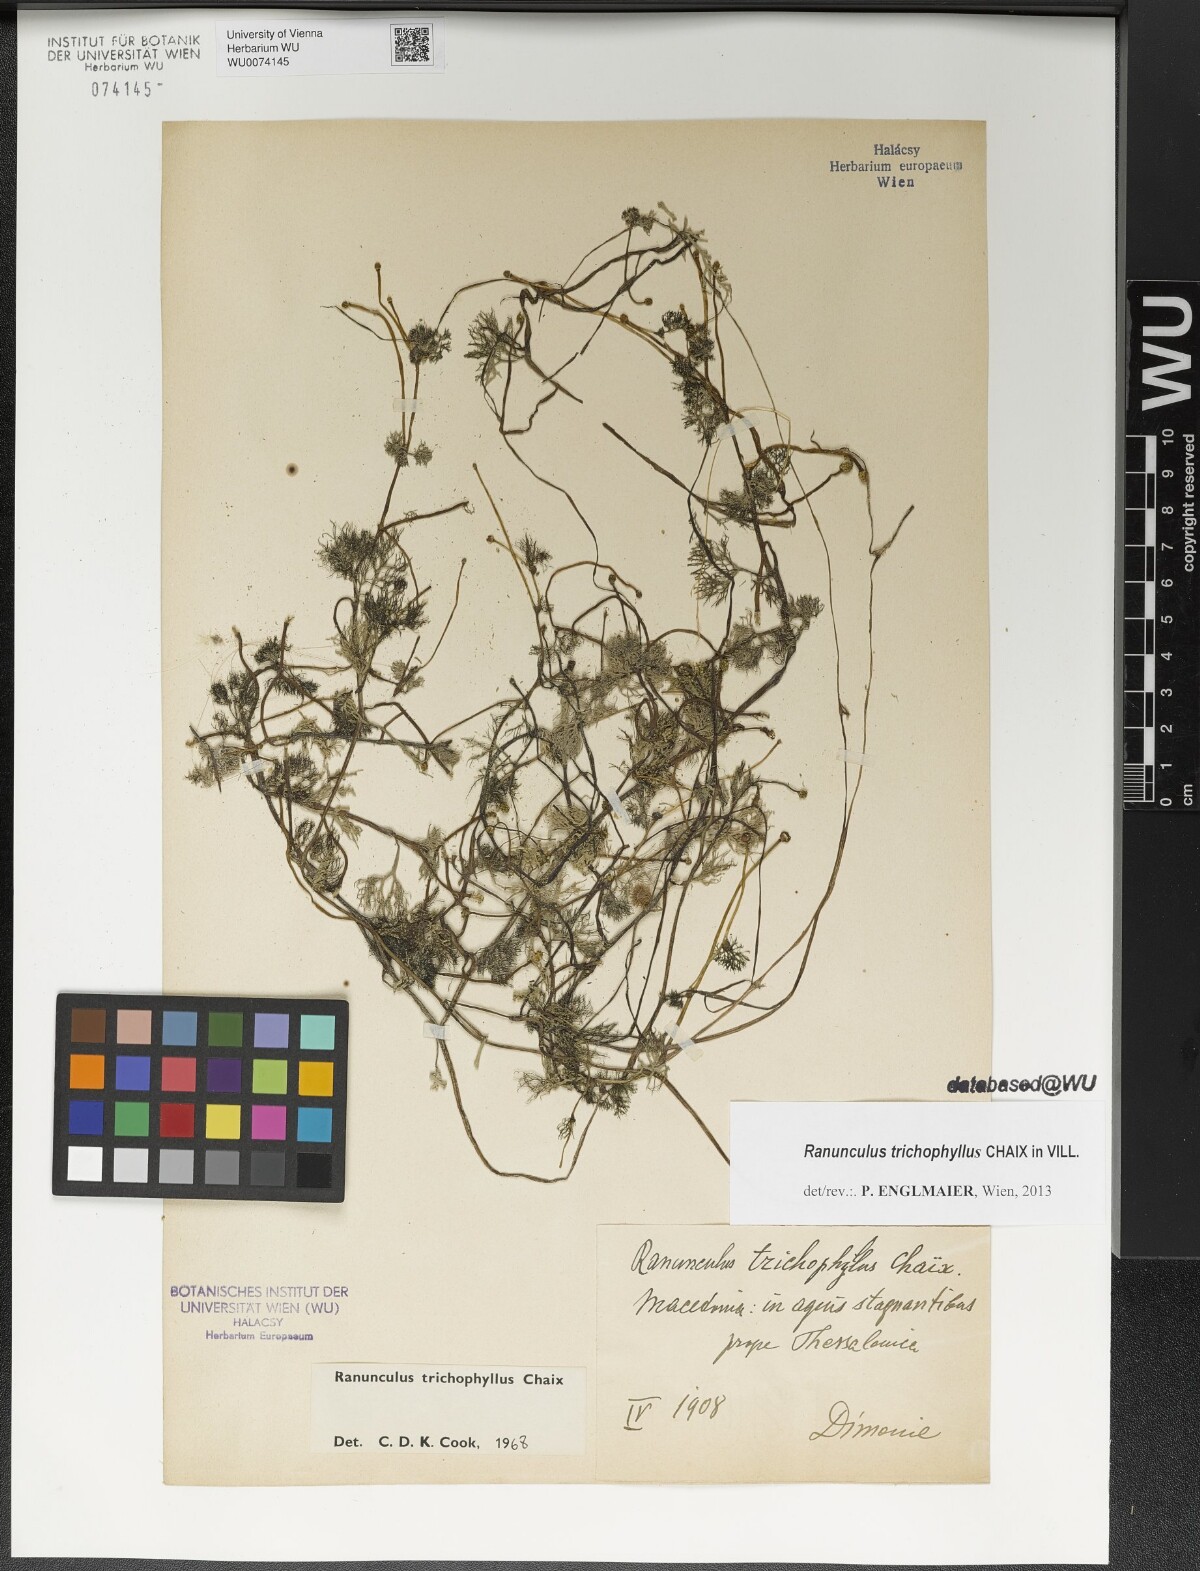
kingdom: Plantae
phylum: Tracheophyta
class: Magnoliopsida
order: Ranunculales
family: Ranunculaceae
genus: Ranunculus
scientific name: Ranunculus trichophyllus
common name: Thread-leaved water-crowfoot
